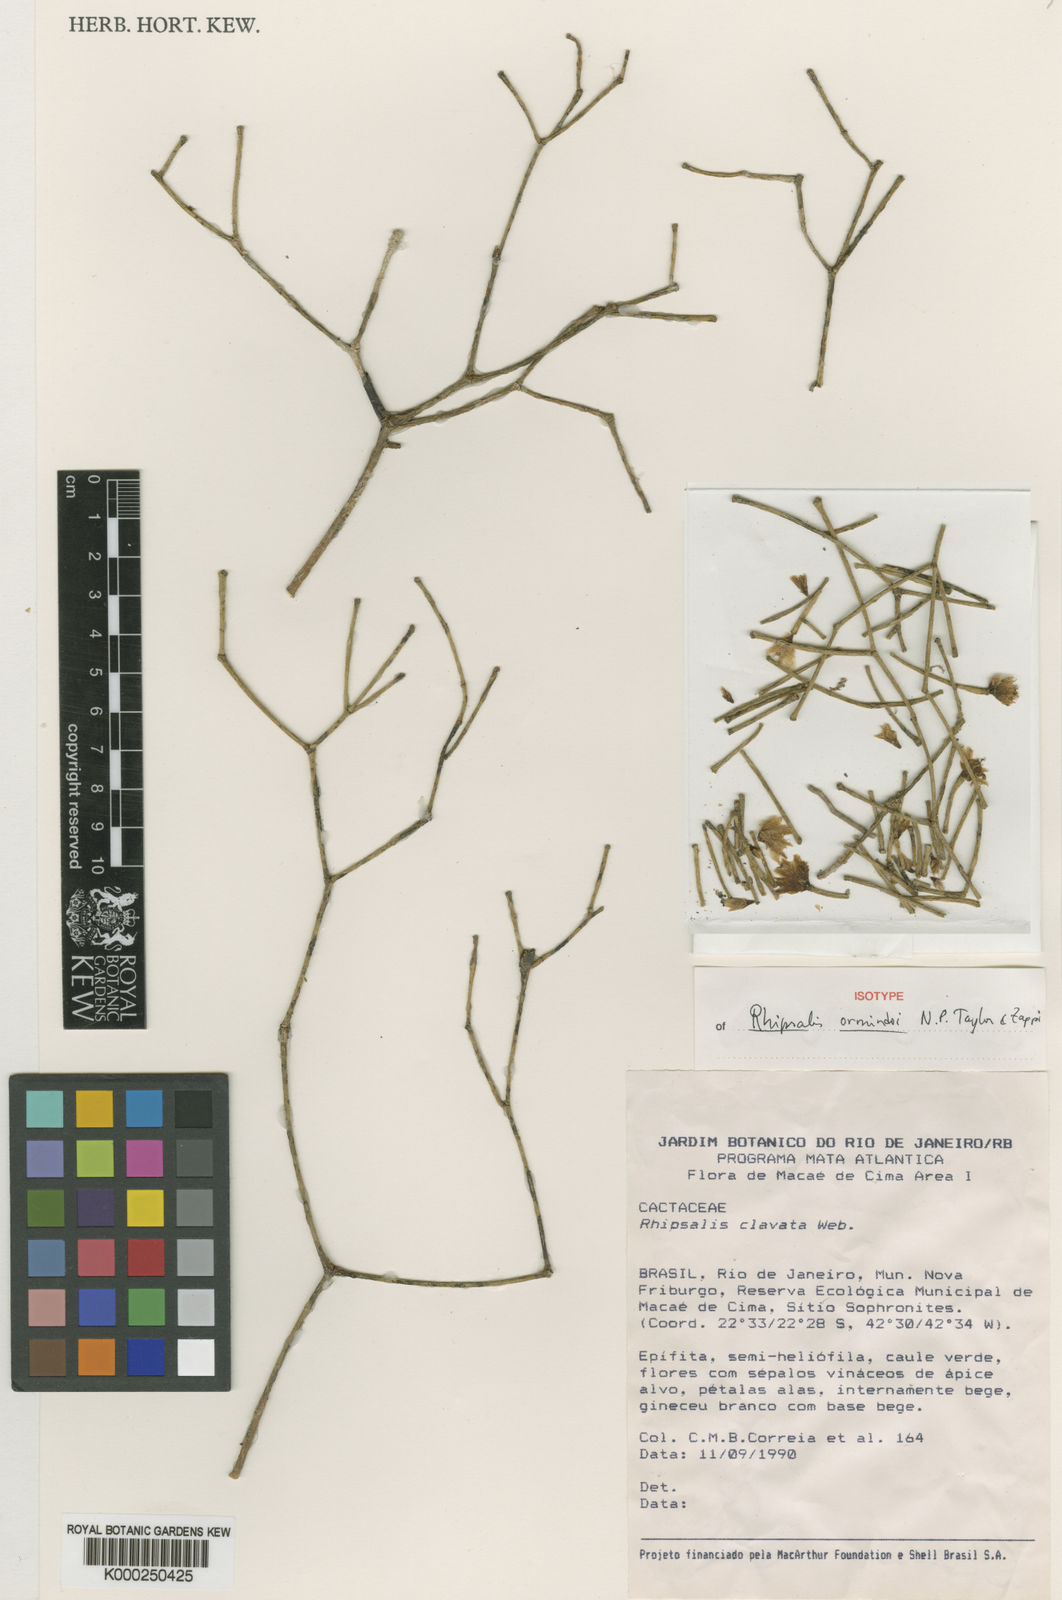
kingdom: Plantae
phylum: Tracheophyta
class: Magnoliopsida
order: Caryophyllales
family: Cactaceae
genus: Rhipsalis
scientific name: Rhipsalis ormindoi
